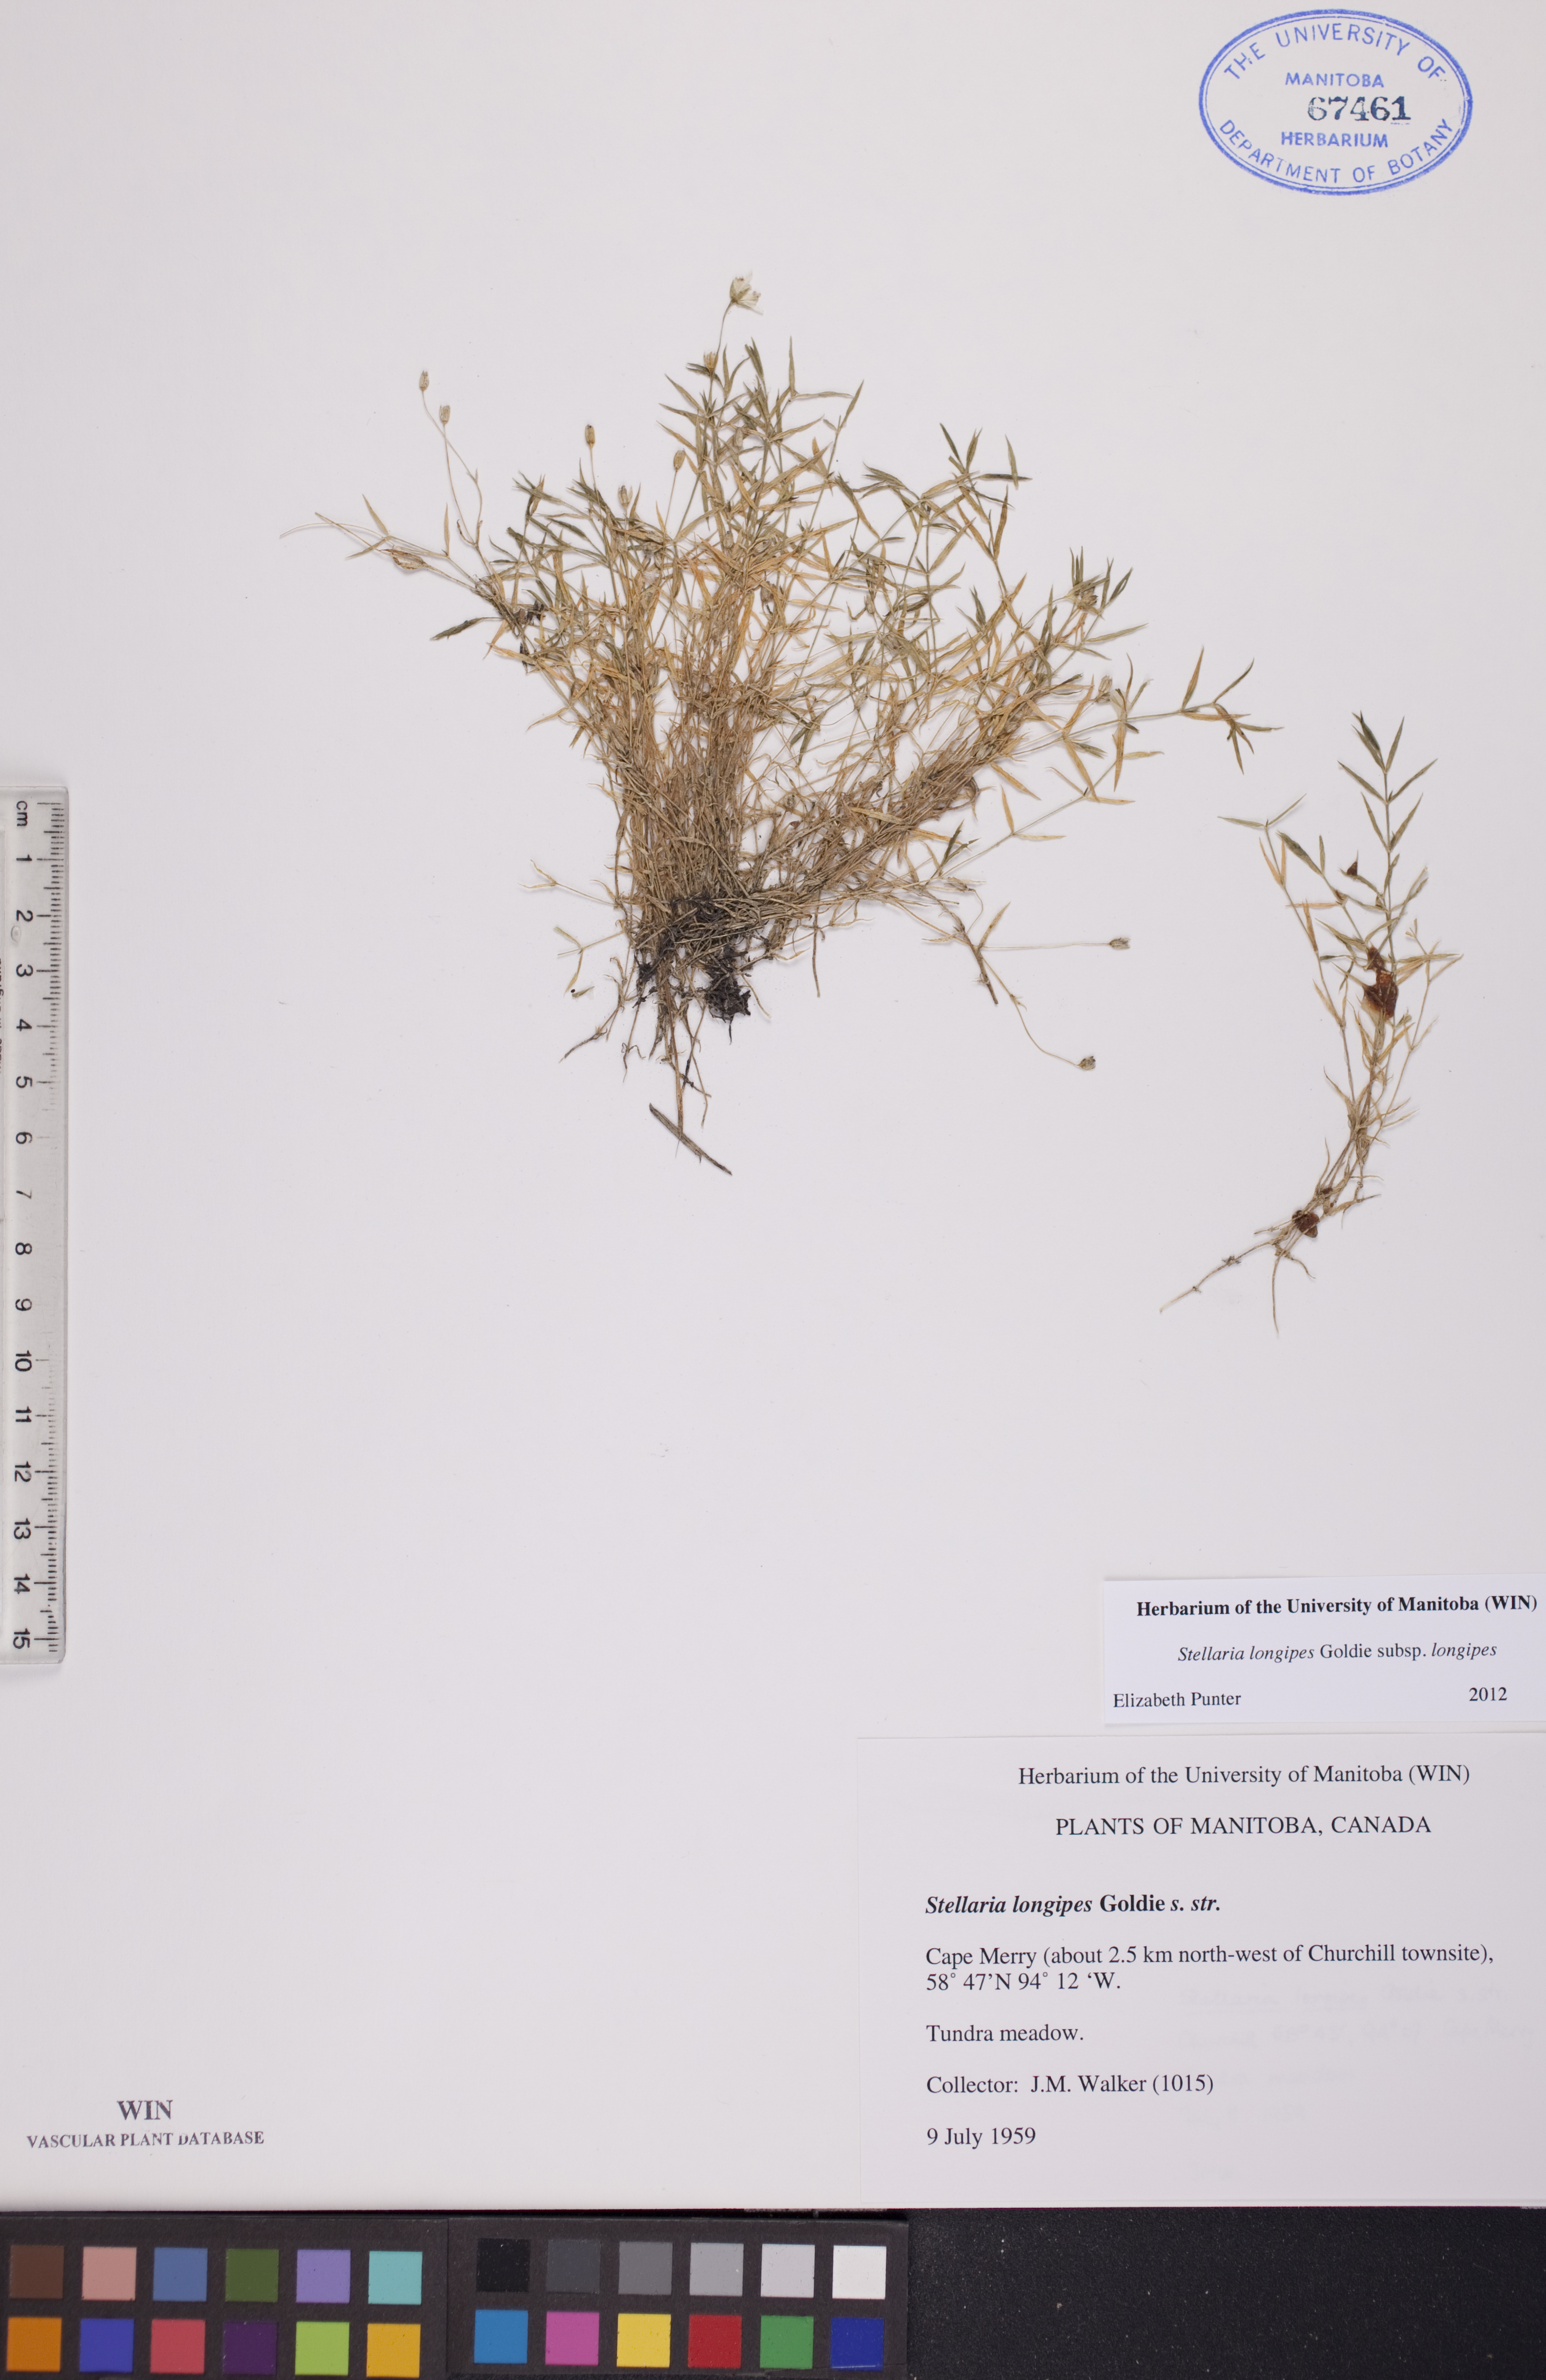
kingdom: Plantae
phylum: Tracheophyta
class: Magnoliopsida
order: Caryophyllales
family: Caryophyllaceae
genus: Stellaria
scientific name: Stellaria longipes
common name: Goldie's starwort
